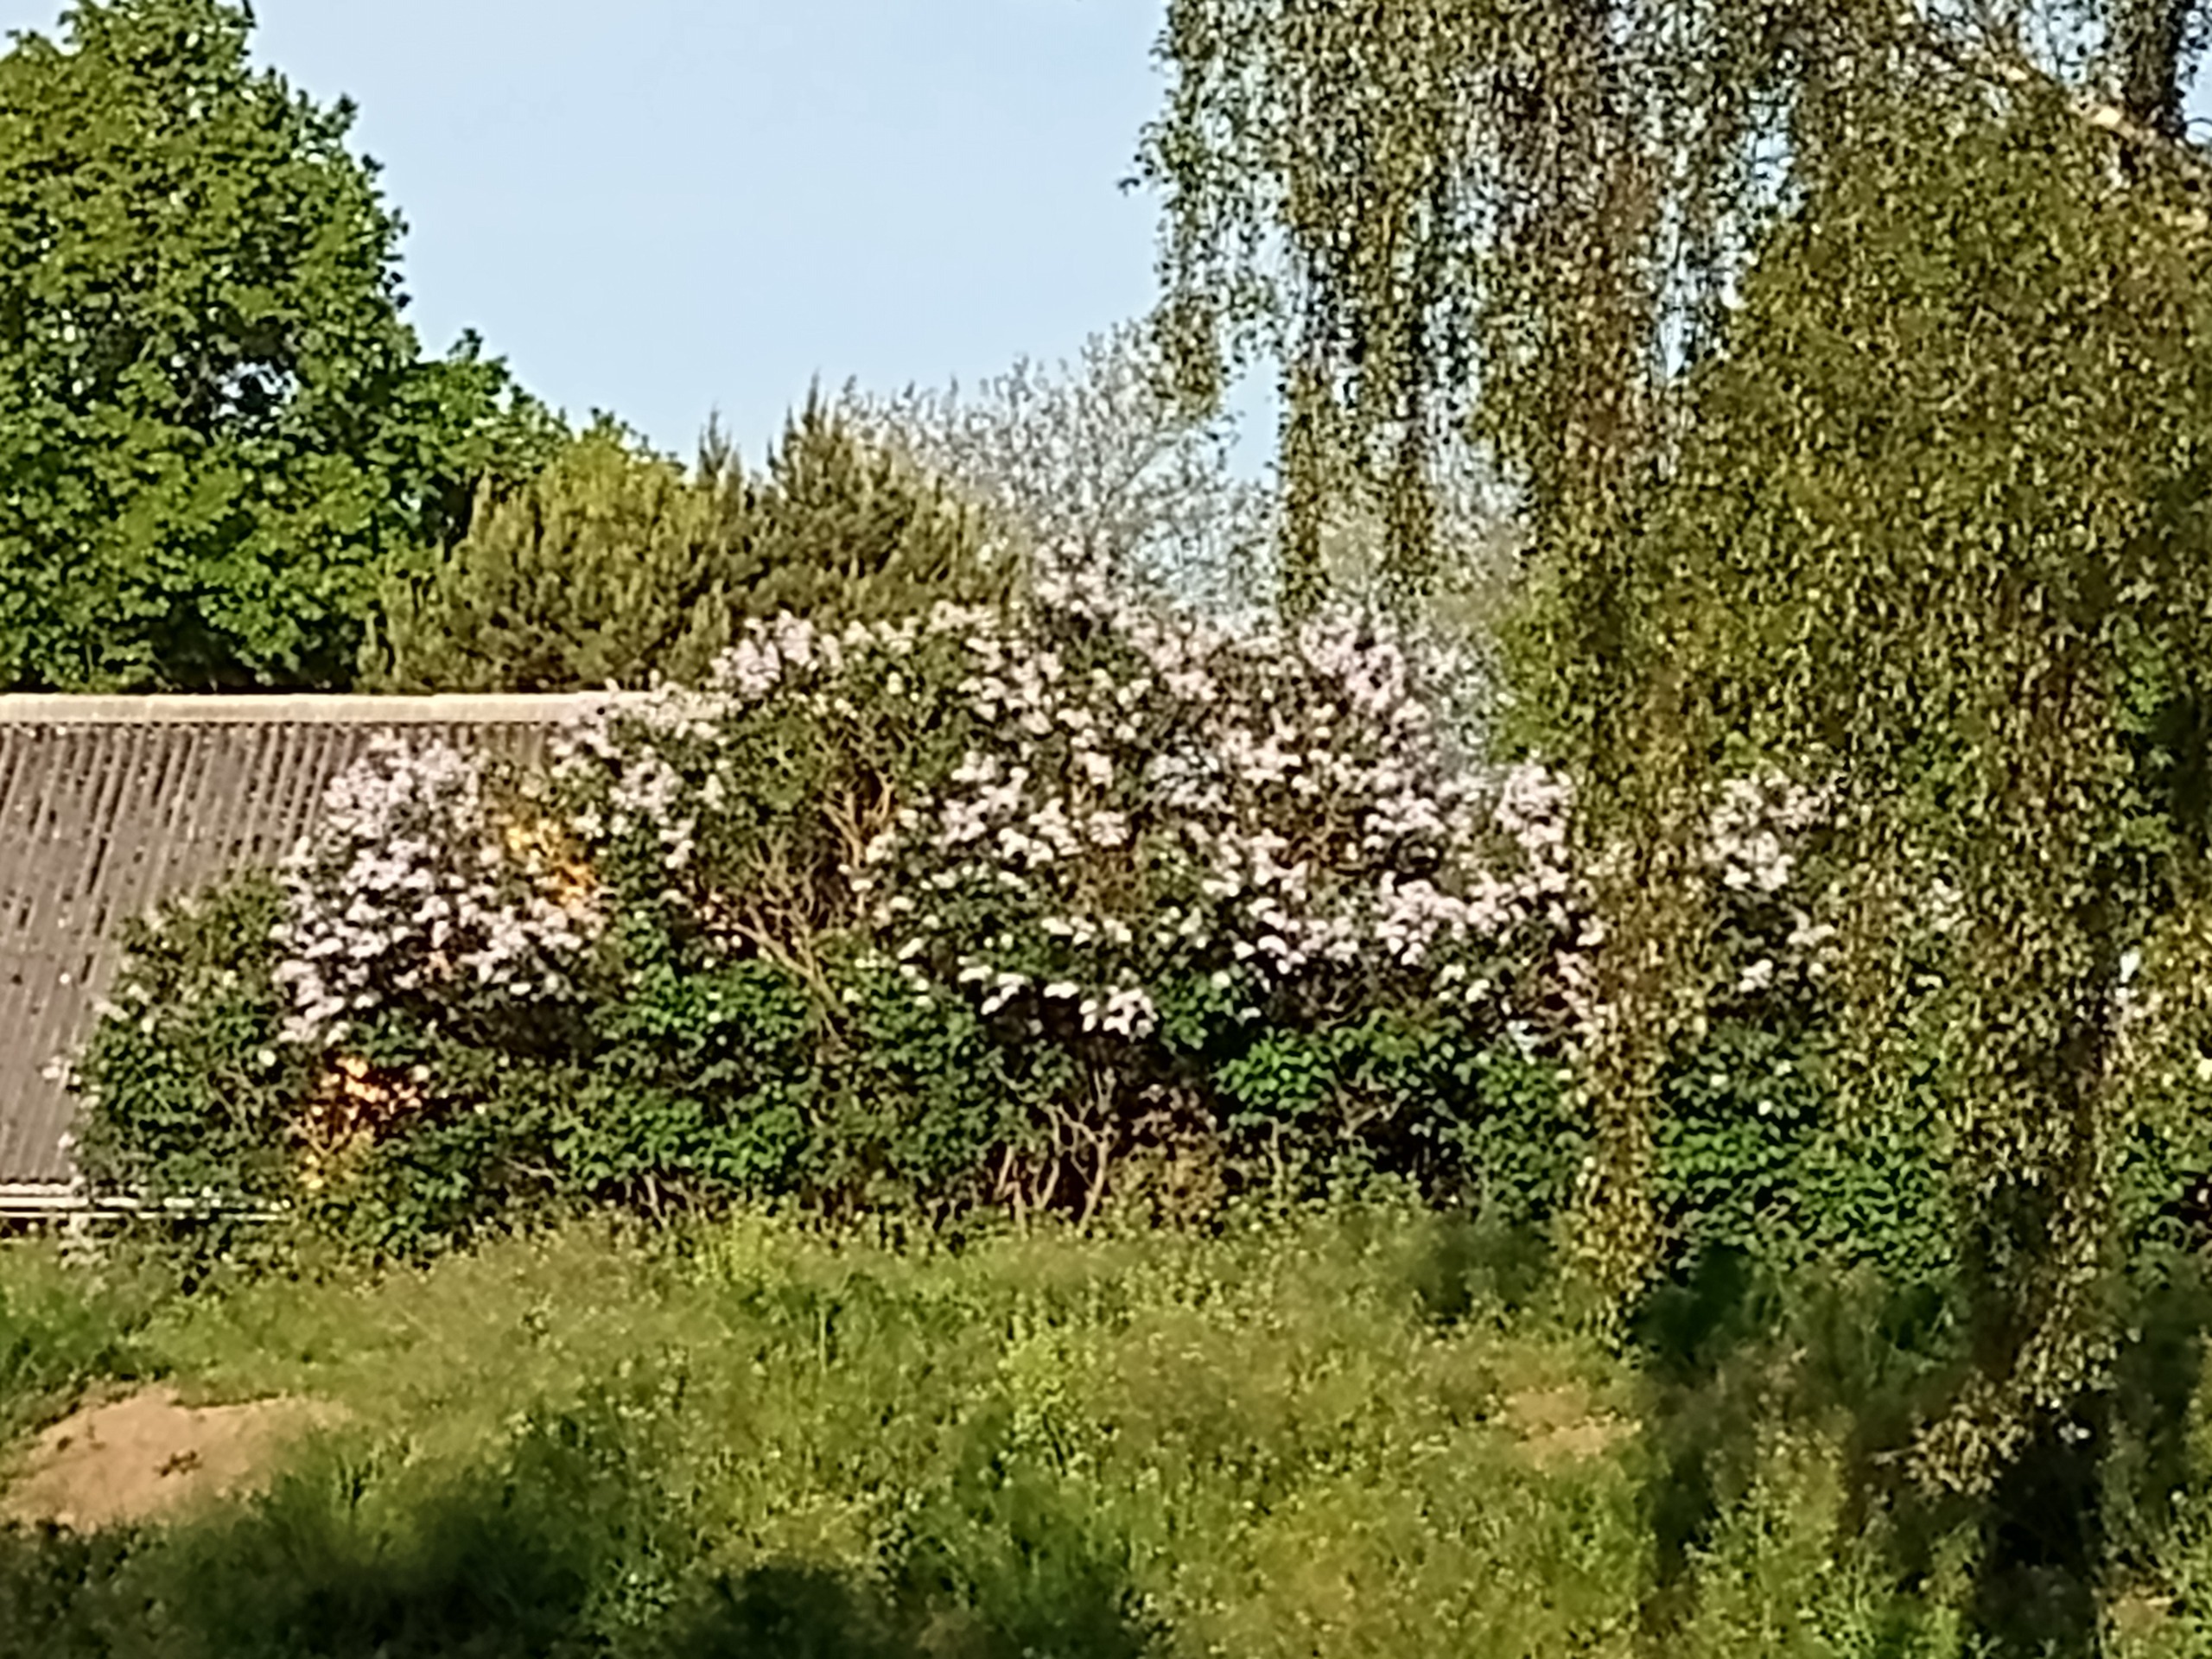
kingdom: Plantae
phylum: Tracheophyta
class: Magnoliopsida
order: Lamiales
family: Oleaceae
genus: Syringa
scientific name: Syringa vulgaris
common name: Syren
